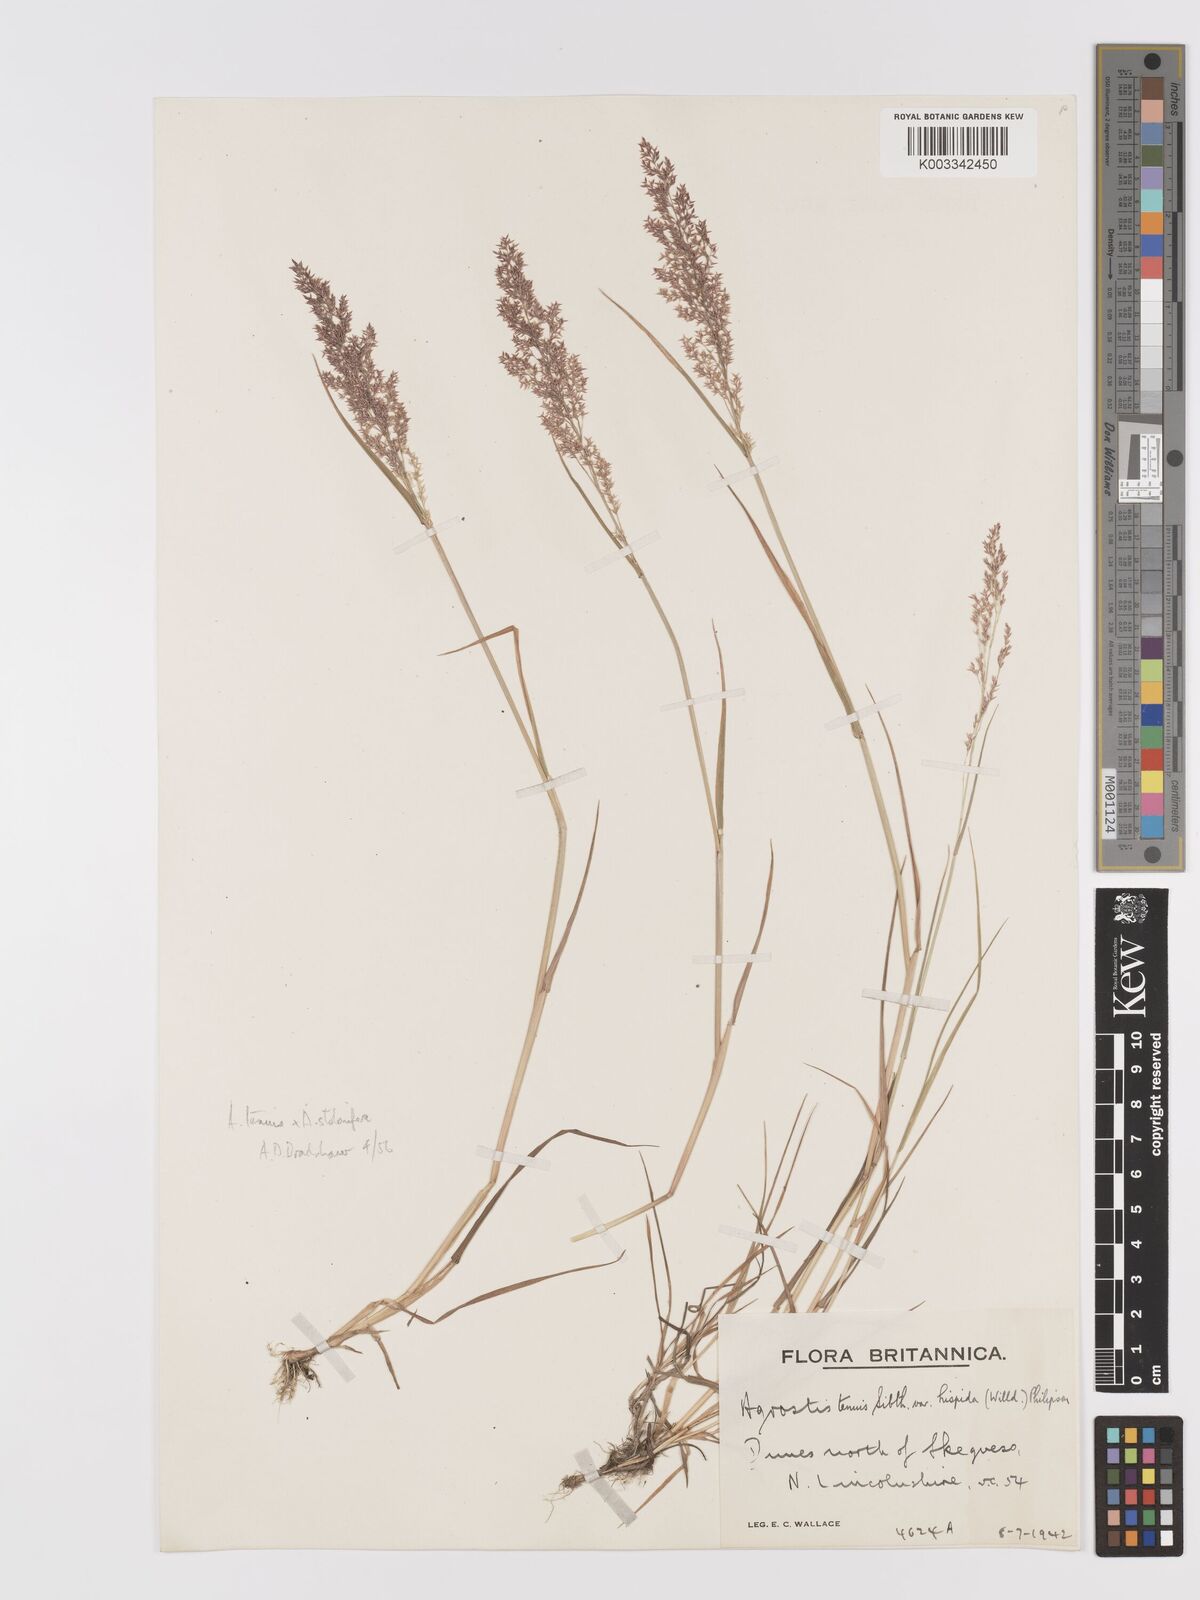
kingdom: Plantae
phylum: Tracheophyta
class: Liliopsida
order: Poales
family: Poaceae
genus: Agrostis
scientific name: Agrostis capillaris
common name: Colonial bentgrass
